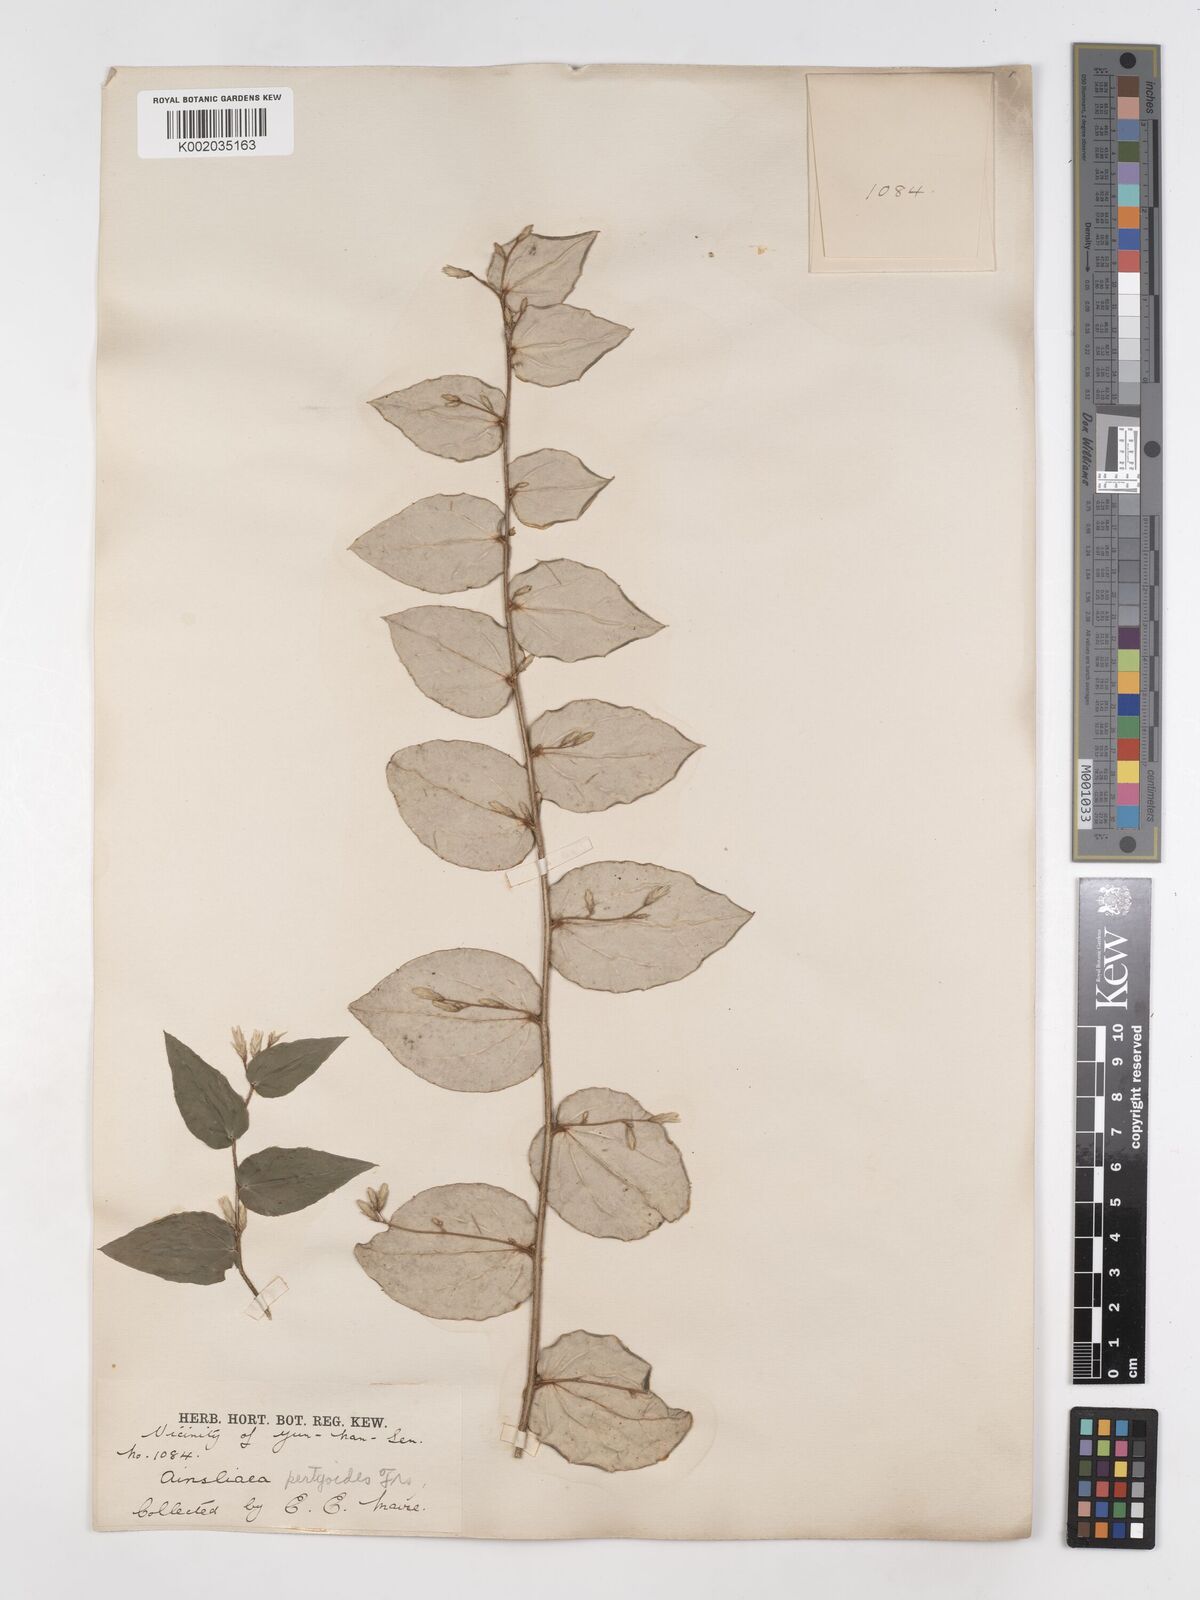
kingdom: Plantae
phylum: Tracheophyta
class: Magnoliopsida
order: Asterales
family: Asteraceae
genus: Ainsliaea
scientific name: Ainsliaea pertyoides
